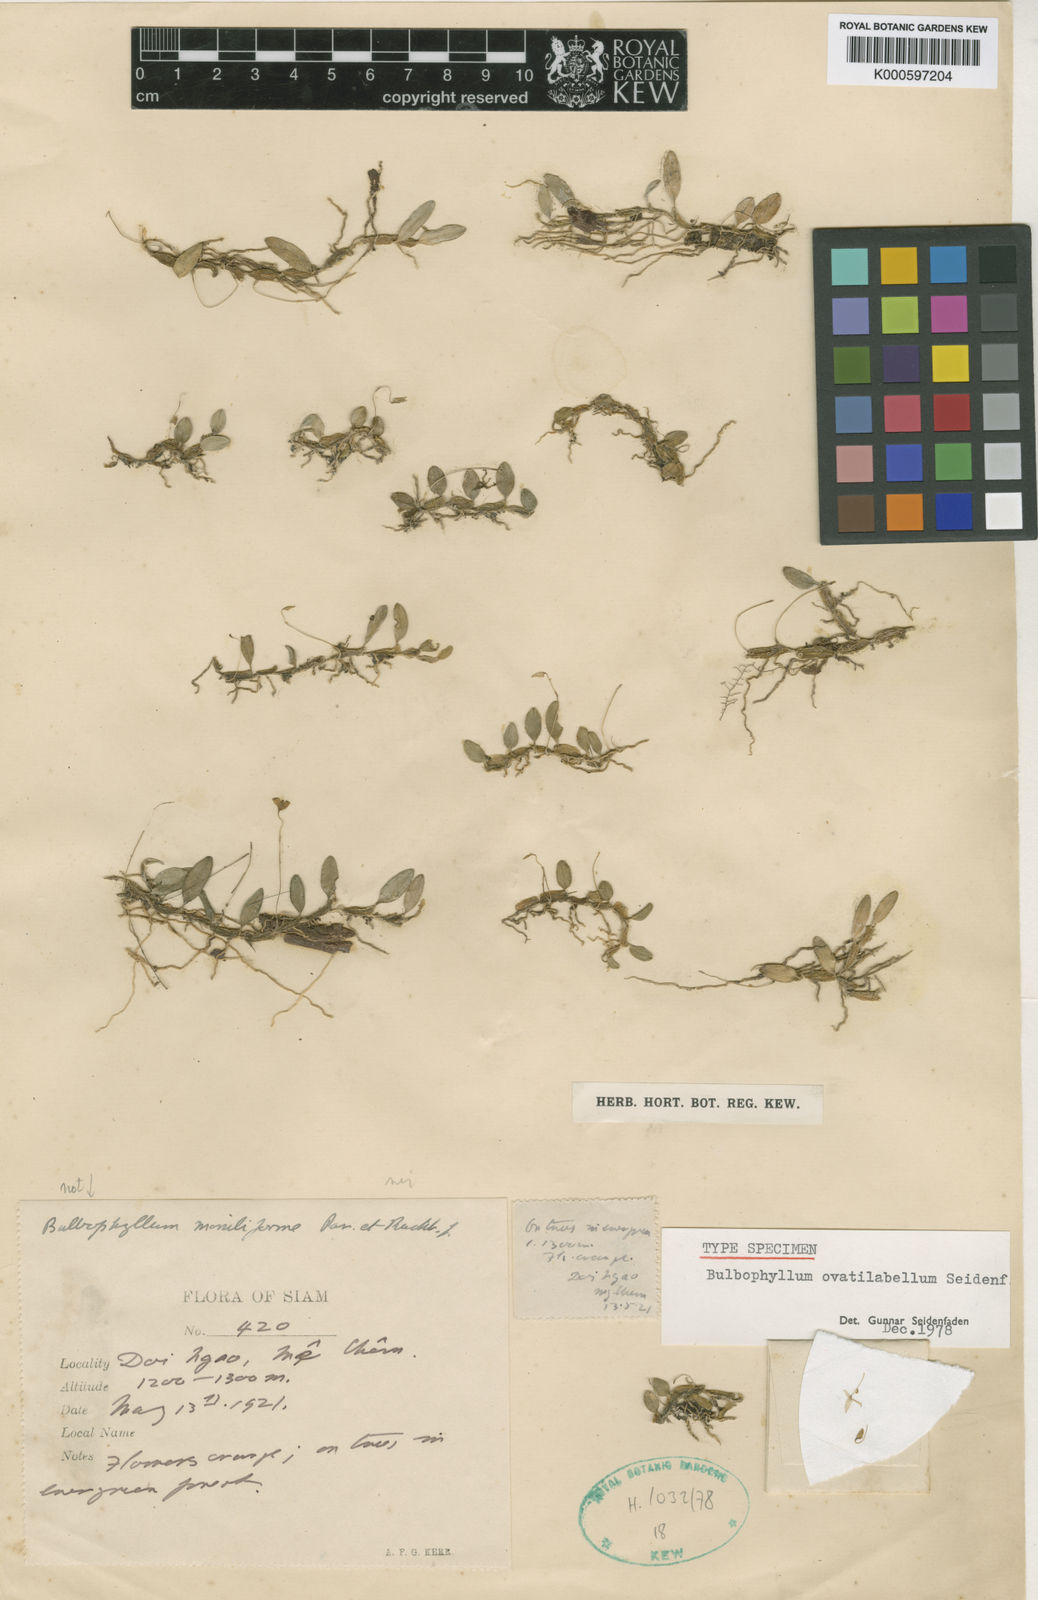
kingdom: Plantae
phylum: Tracheophyta
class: Liliopsida
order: Asparagales
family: Orchidaceae
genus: Bulbophyllum
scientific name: Bulbophyllum ovalifolium
